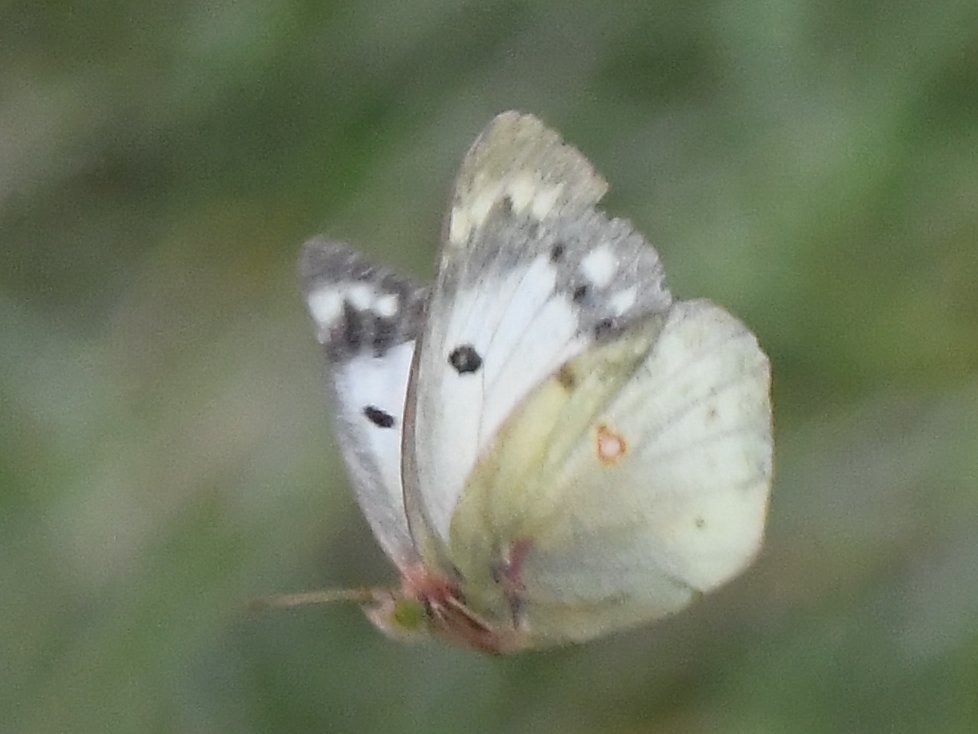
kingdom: Animalia
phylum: Arthropoda
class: Insecta
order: Lepidoptera
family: Pieridae
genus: Colias
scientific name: Colias
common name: Clouded Yellows
